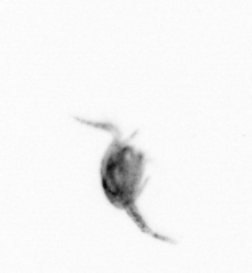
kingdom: Animalia
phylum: Arthropoda
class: Copepoda
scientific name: Copepoda
